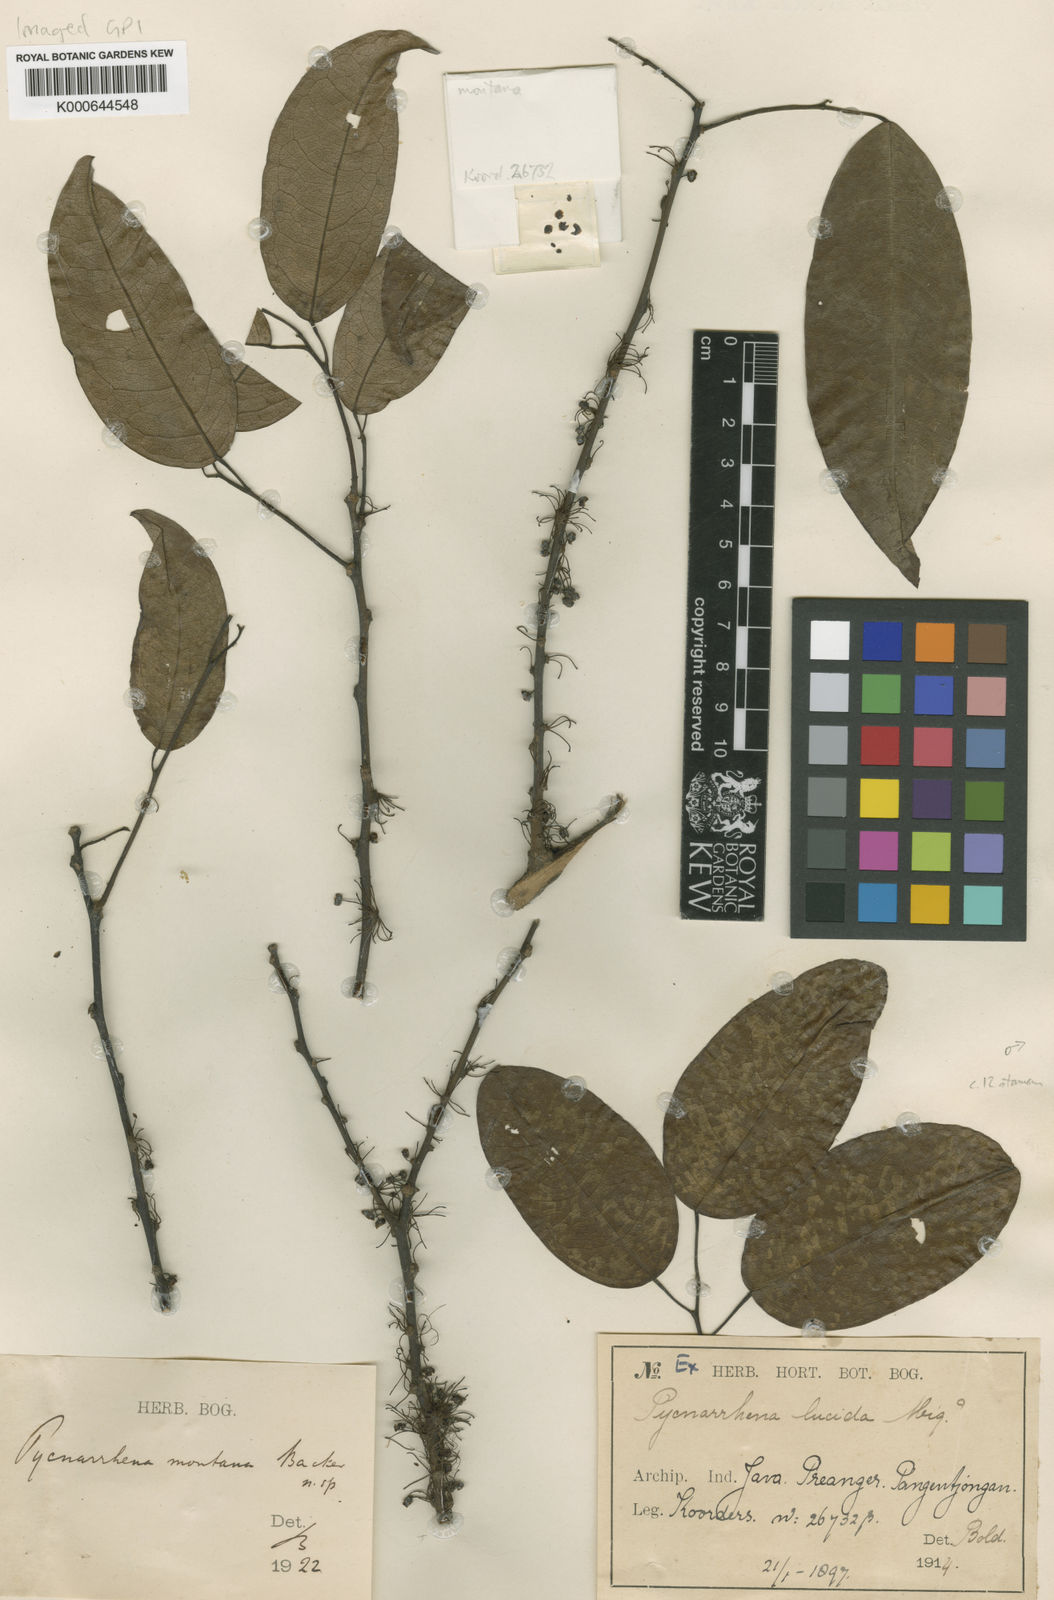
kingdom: Plantae
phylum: Tracheophyta
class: Magnoliopsida
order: Ranunculales
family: Menispermaceae
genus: Pycnarrhena
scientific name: Pycnarrhena montana
